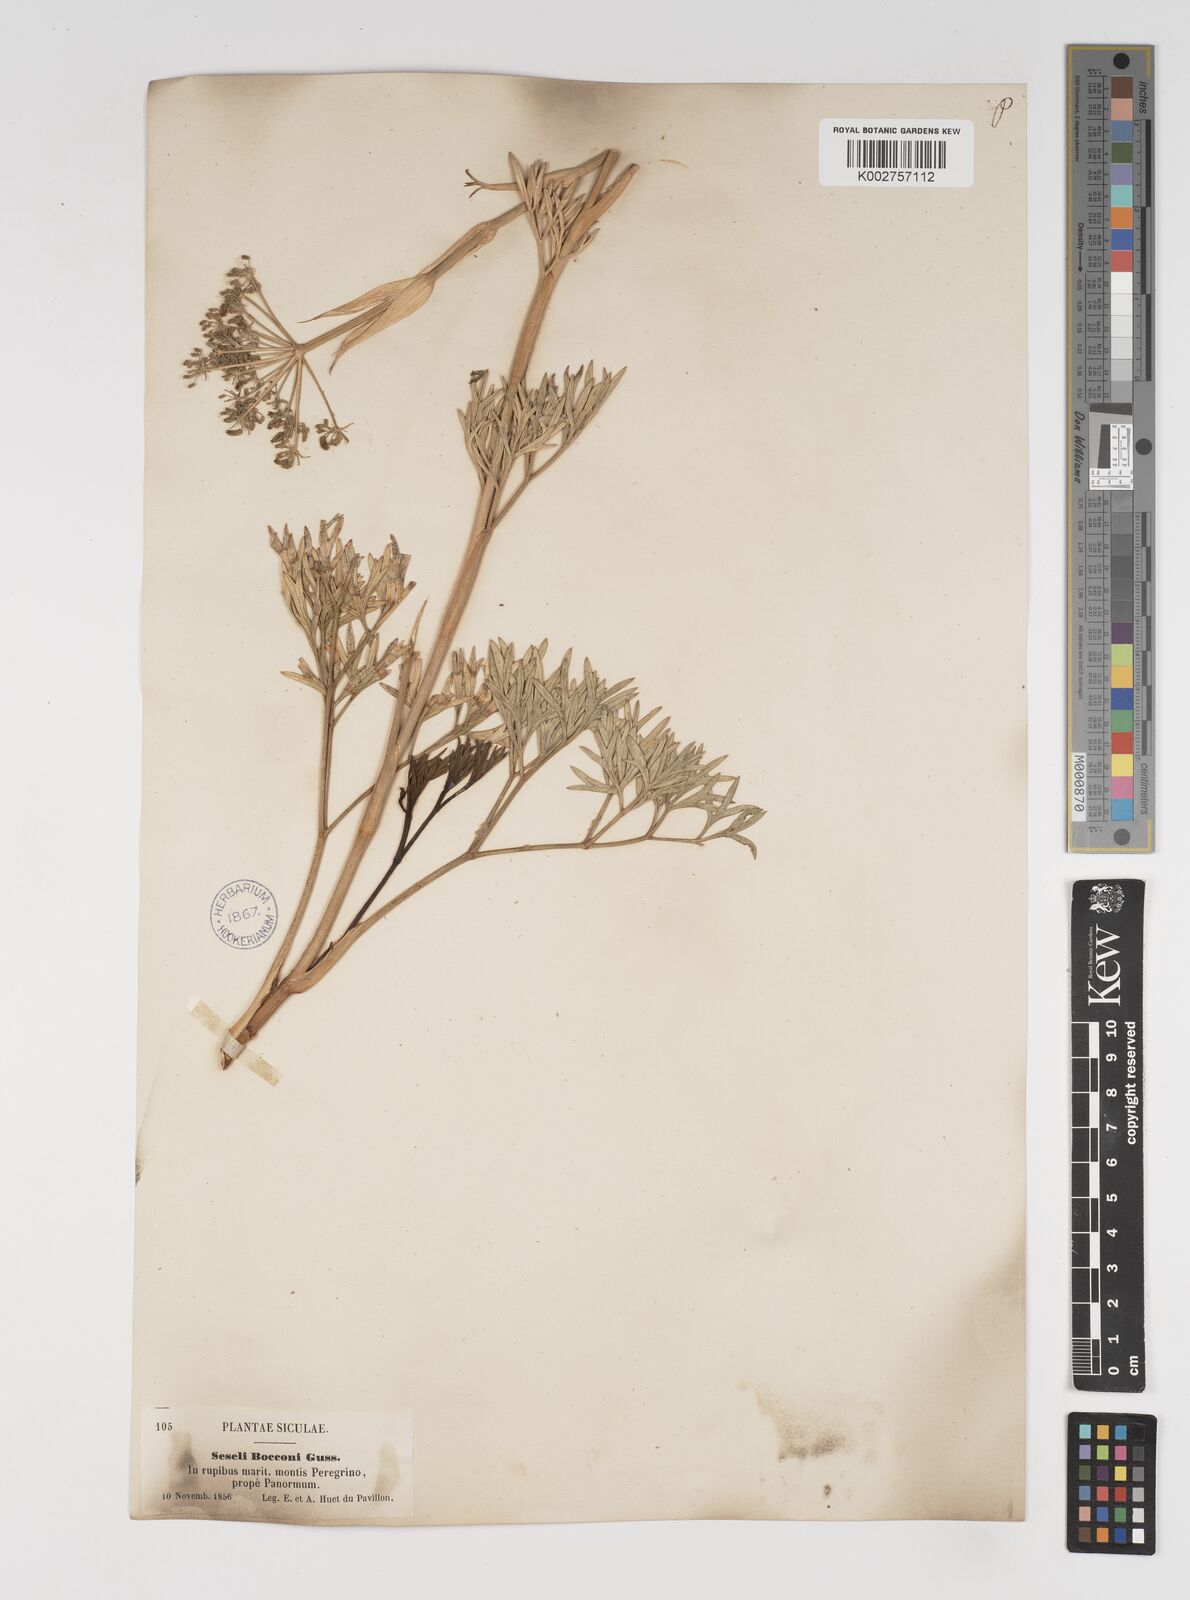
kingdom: Plantae
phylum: Tracheophyta
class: Magnoliopsida
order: Apiales
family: Apiaceae
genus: Seseli
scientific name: Seseli bocconei
